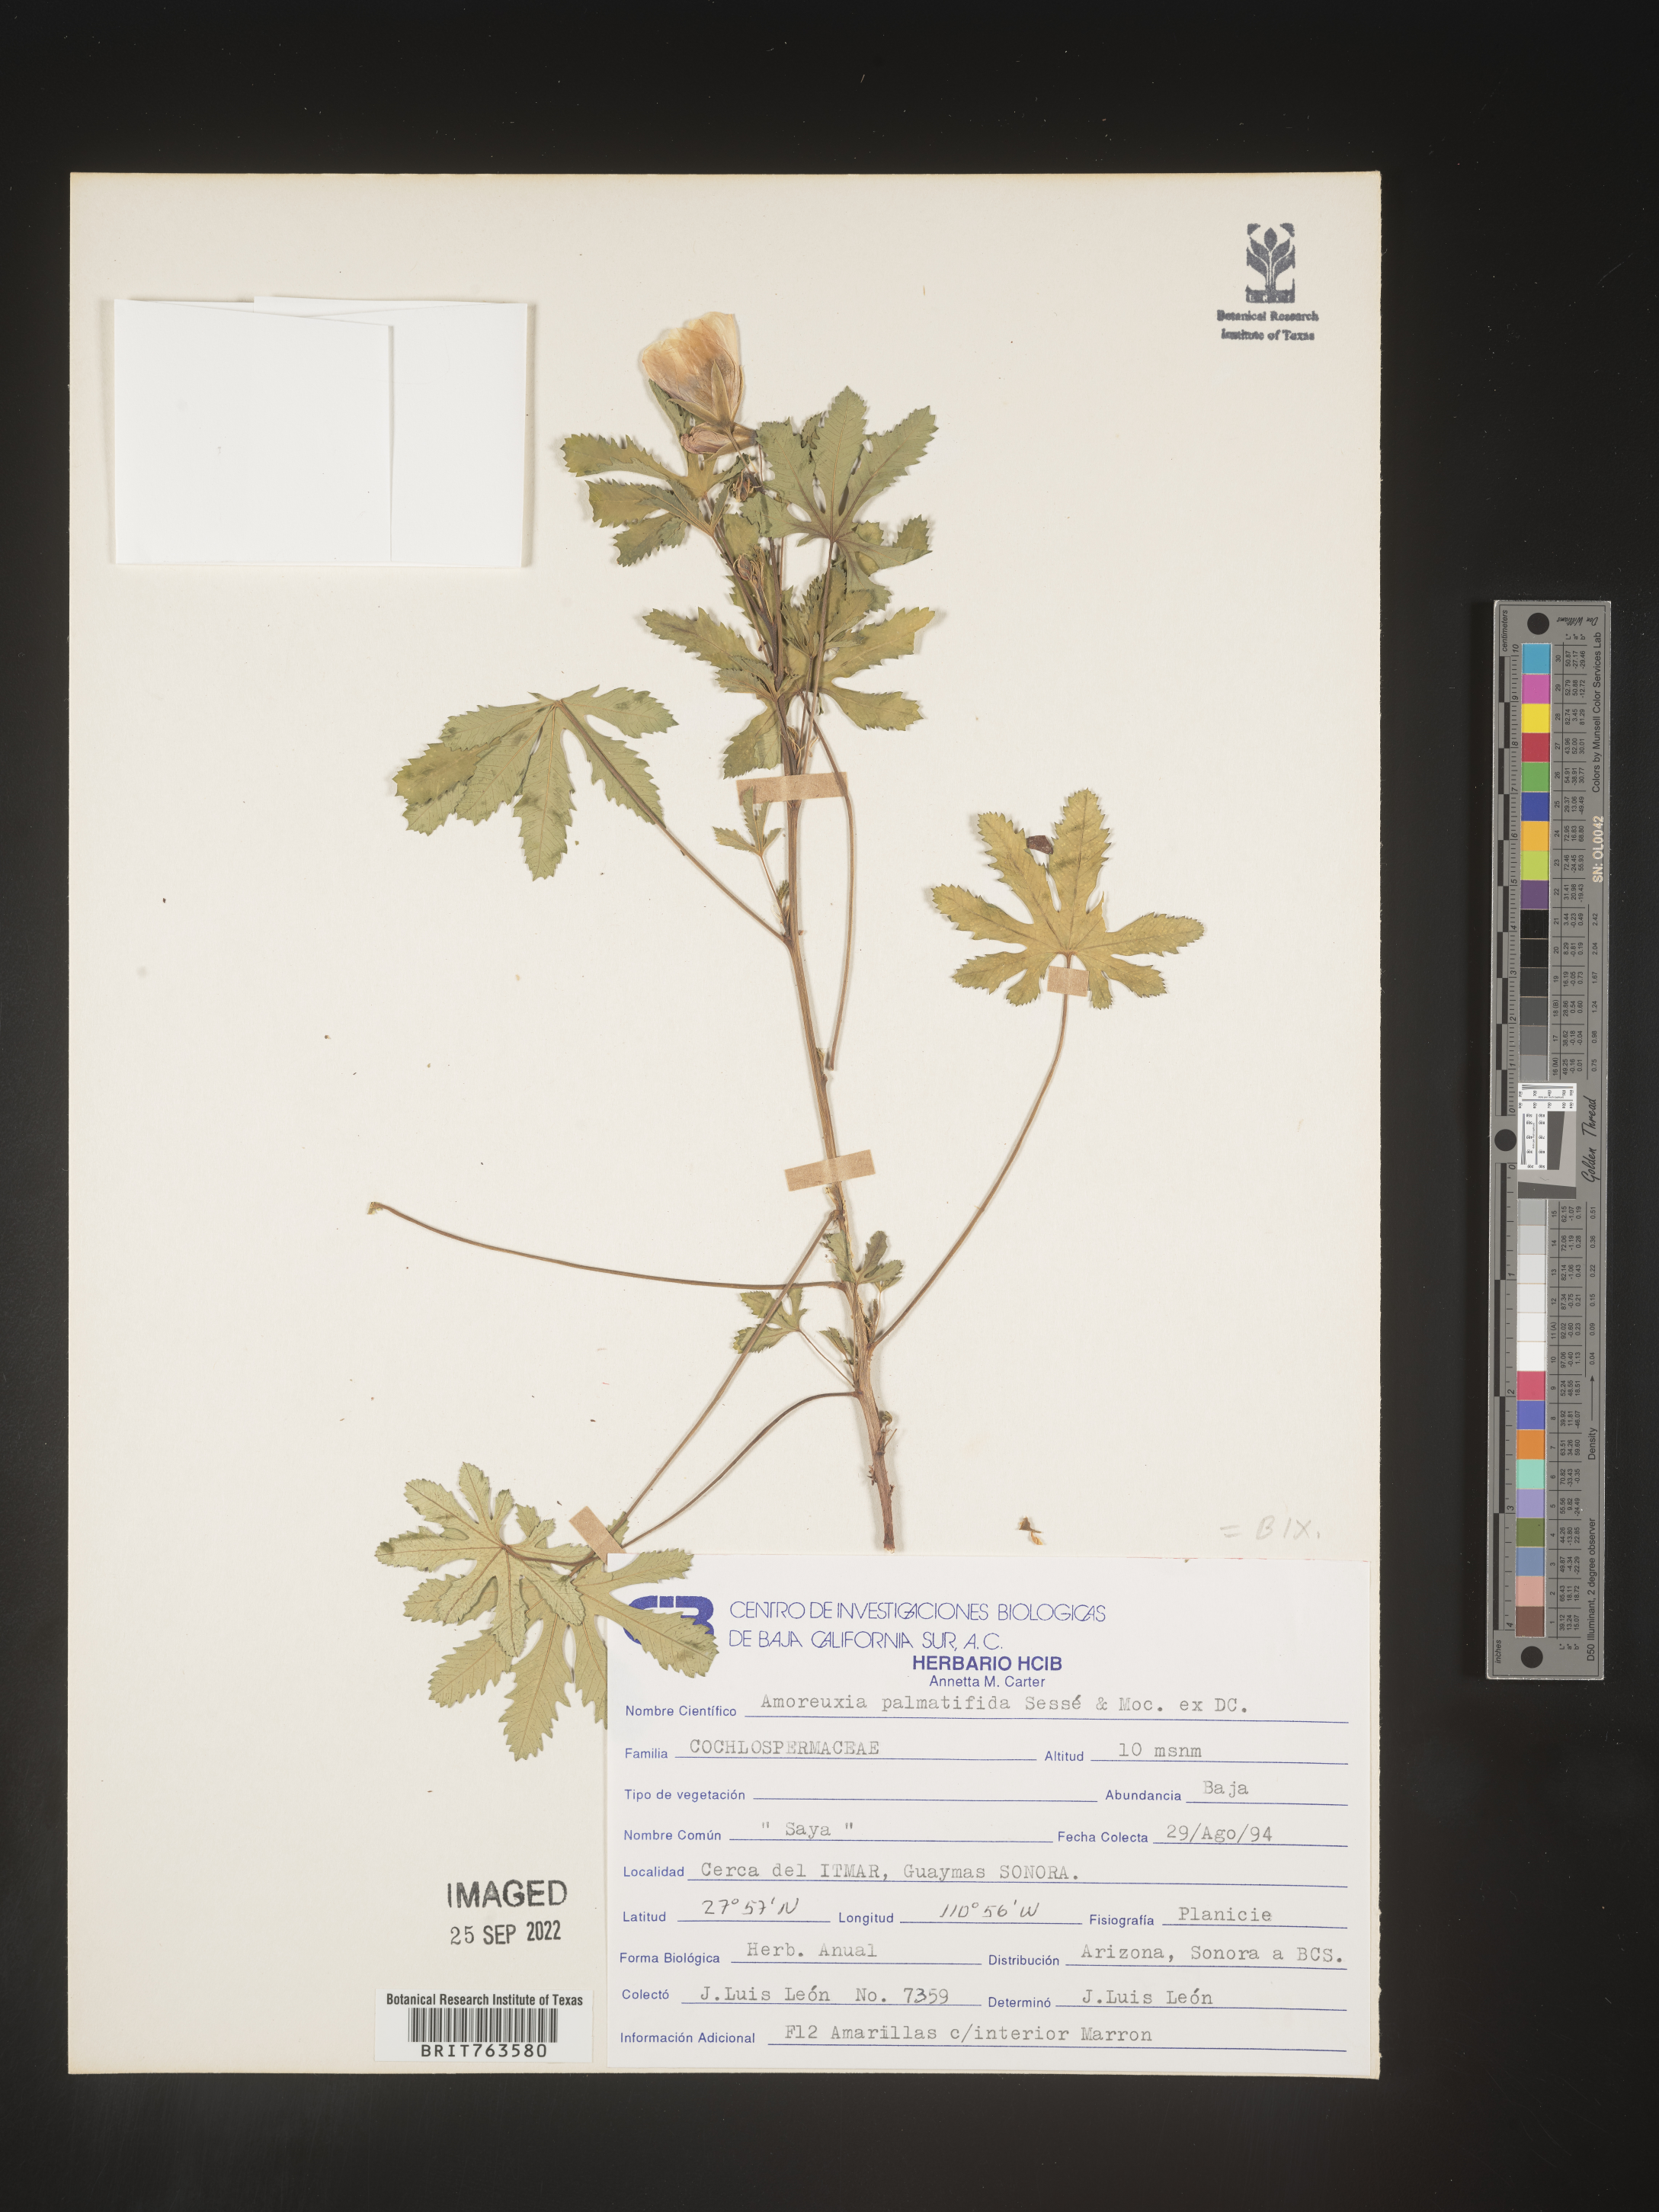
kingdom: Plantae
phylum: Tracheophyta
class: Magnoliopsida
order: Caryophyllales
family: Amaranthaceae
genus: Amoreuxia
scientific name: Amoreuxia
